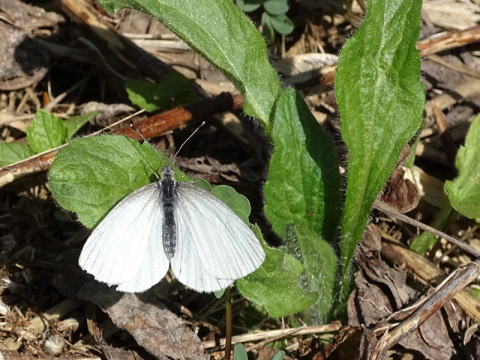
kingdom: Animalia
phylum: Arthropoda
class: Insecta
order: Lepidoptera
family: Pieridae
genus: Pieris
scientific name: Pieris
